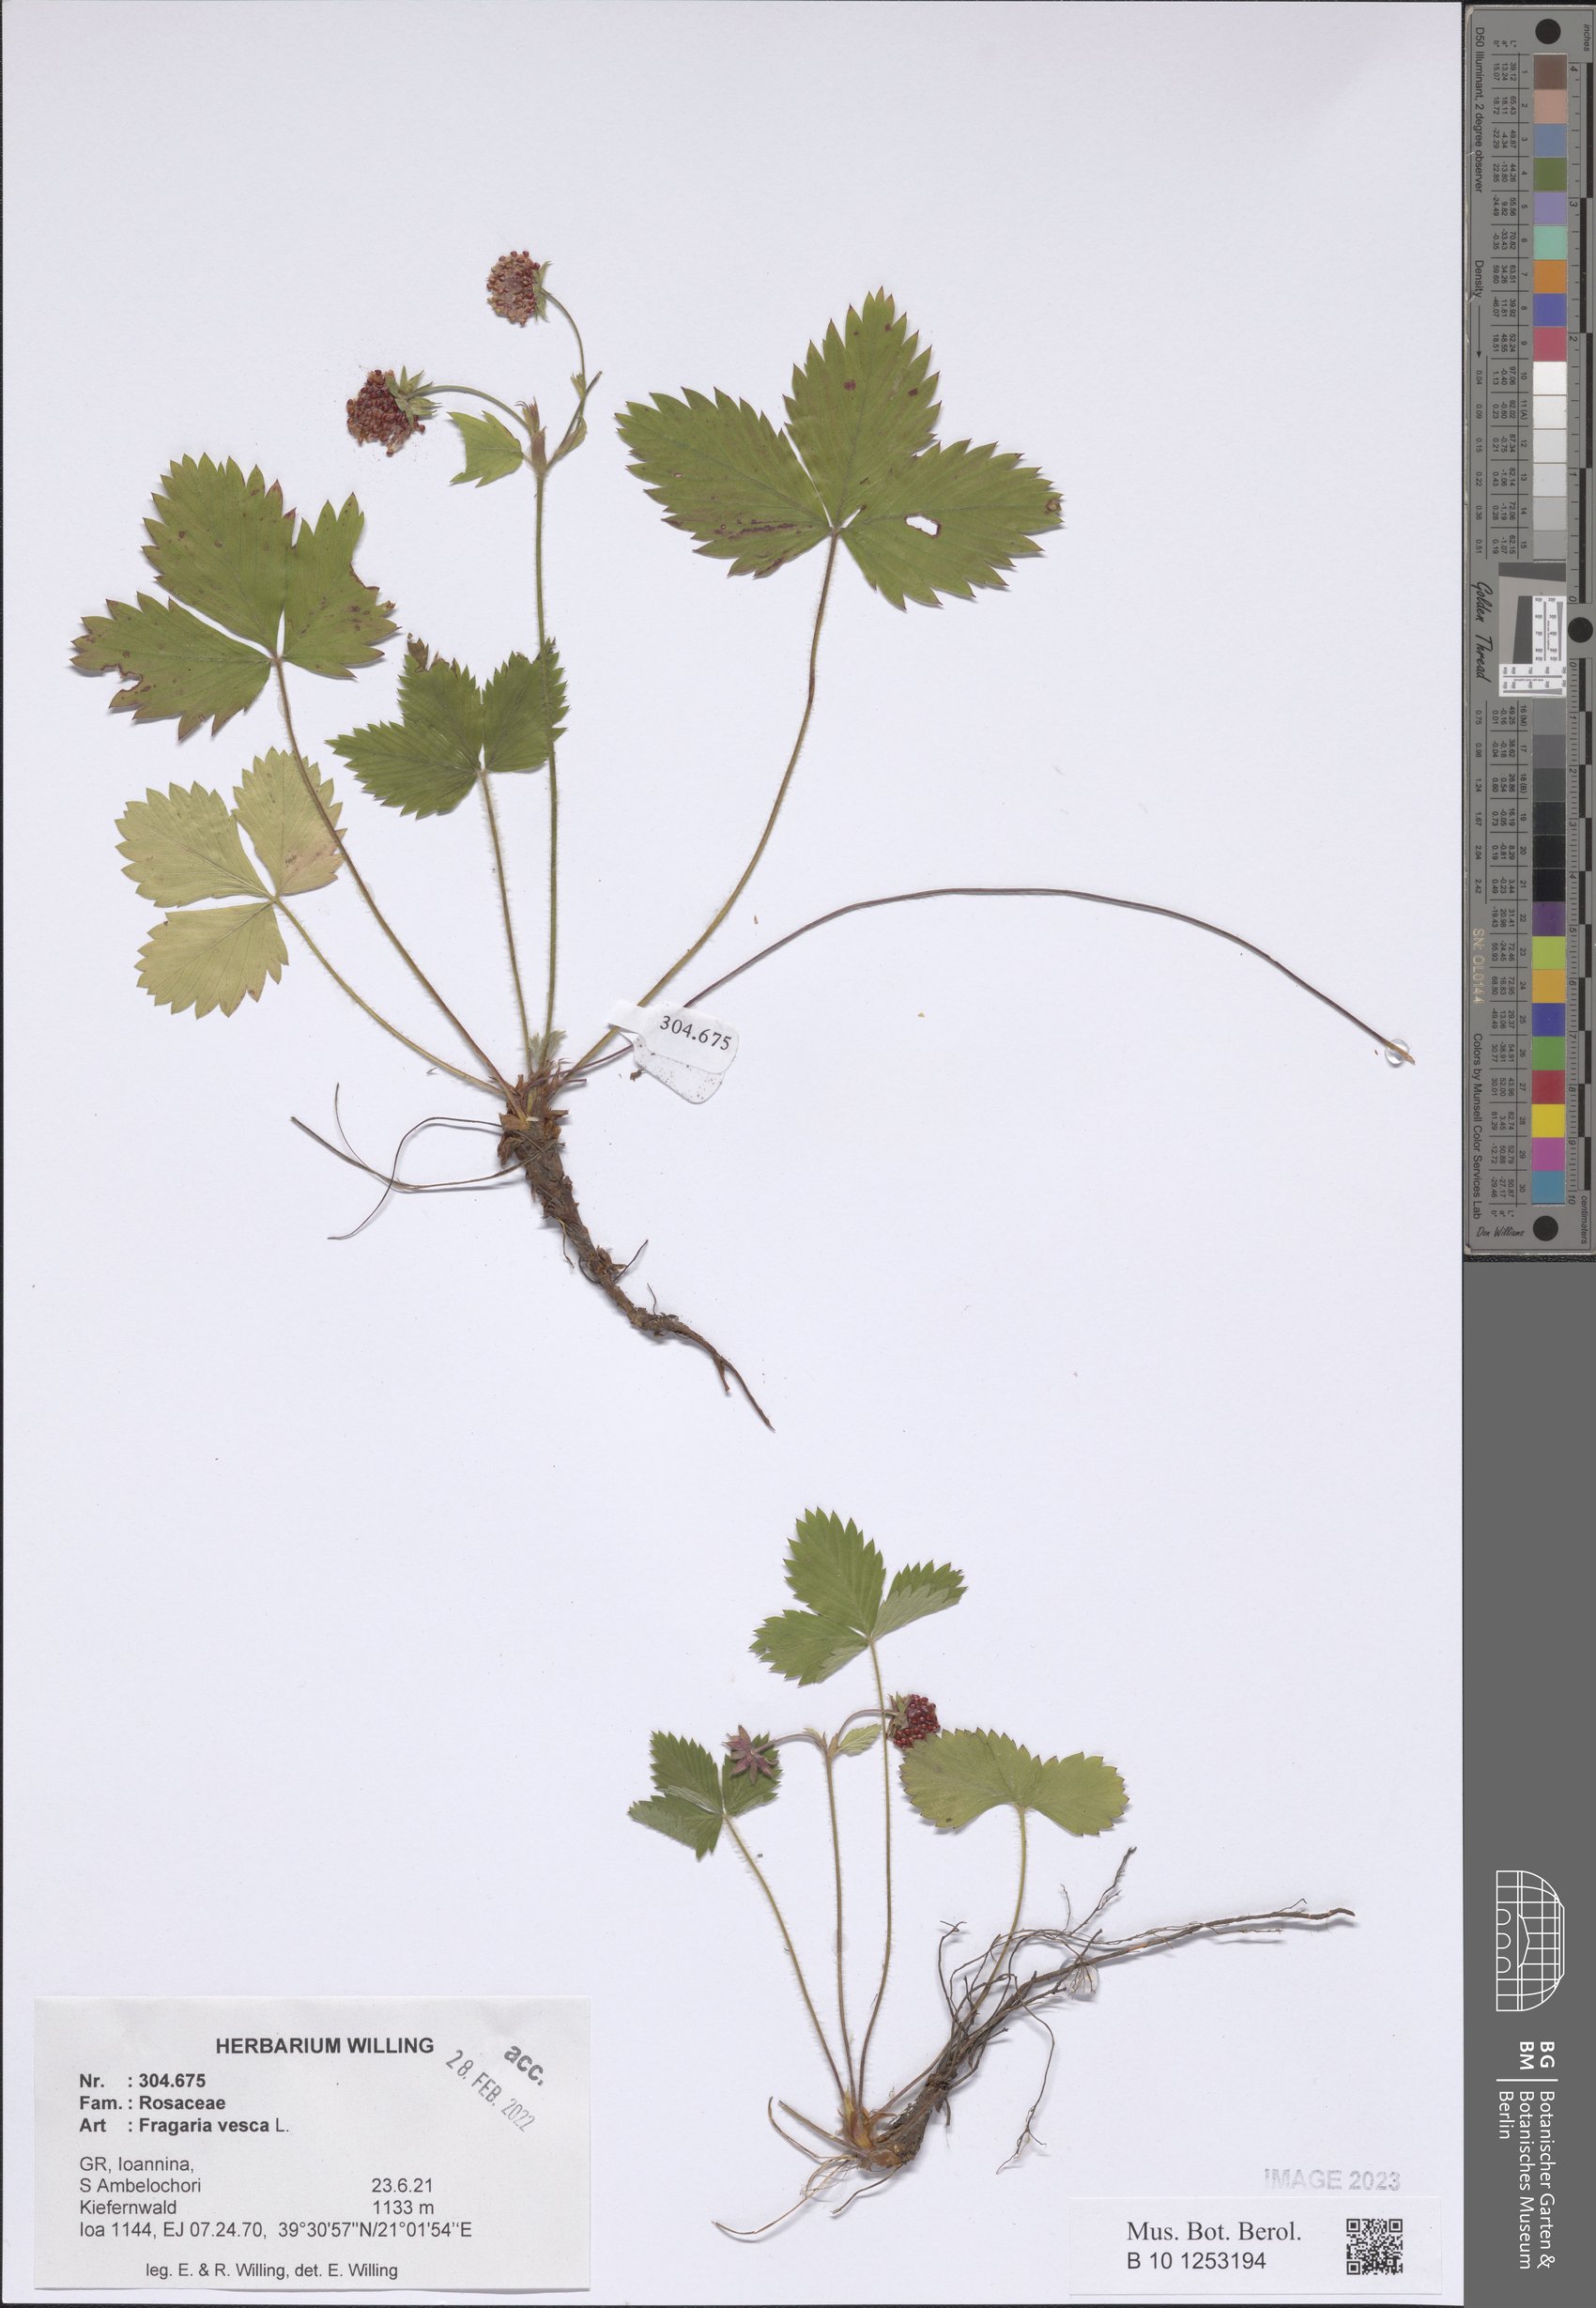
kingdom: Plantae
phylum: Tracheophyta
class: Magnoliopsida
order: Rosales
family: Rosaceae
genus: Fragaria
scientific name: Fragaria vesca
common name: Wild strawberry
